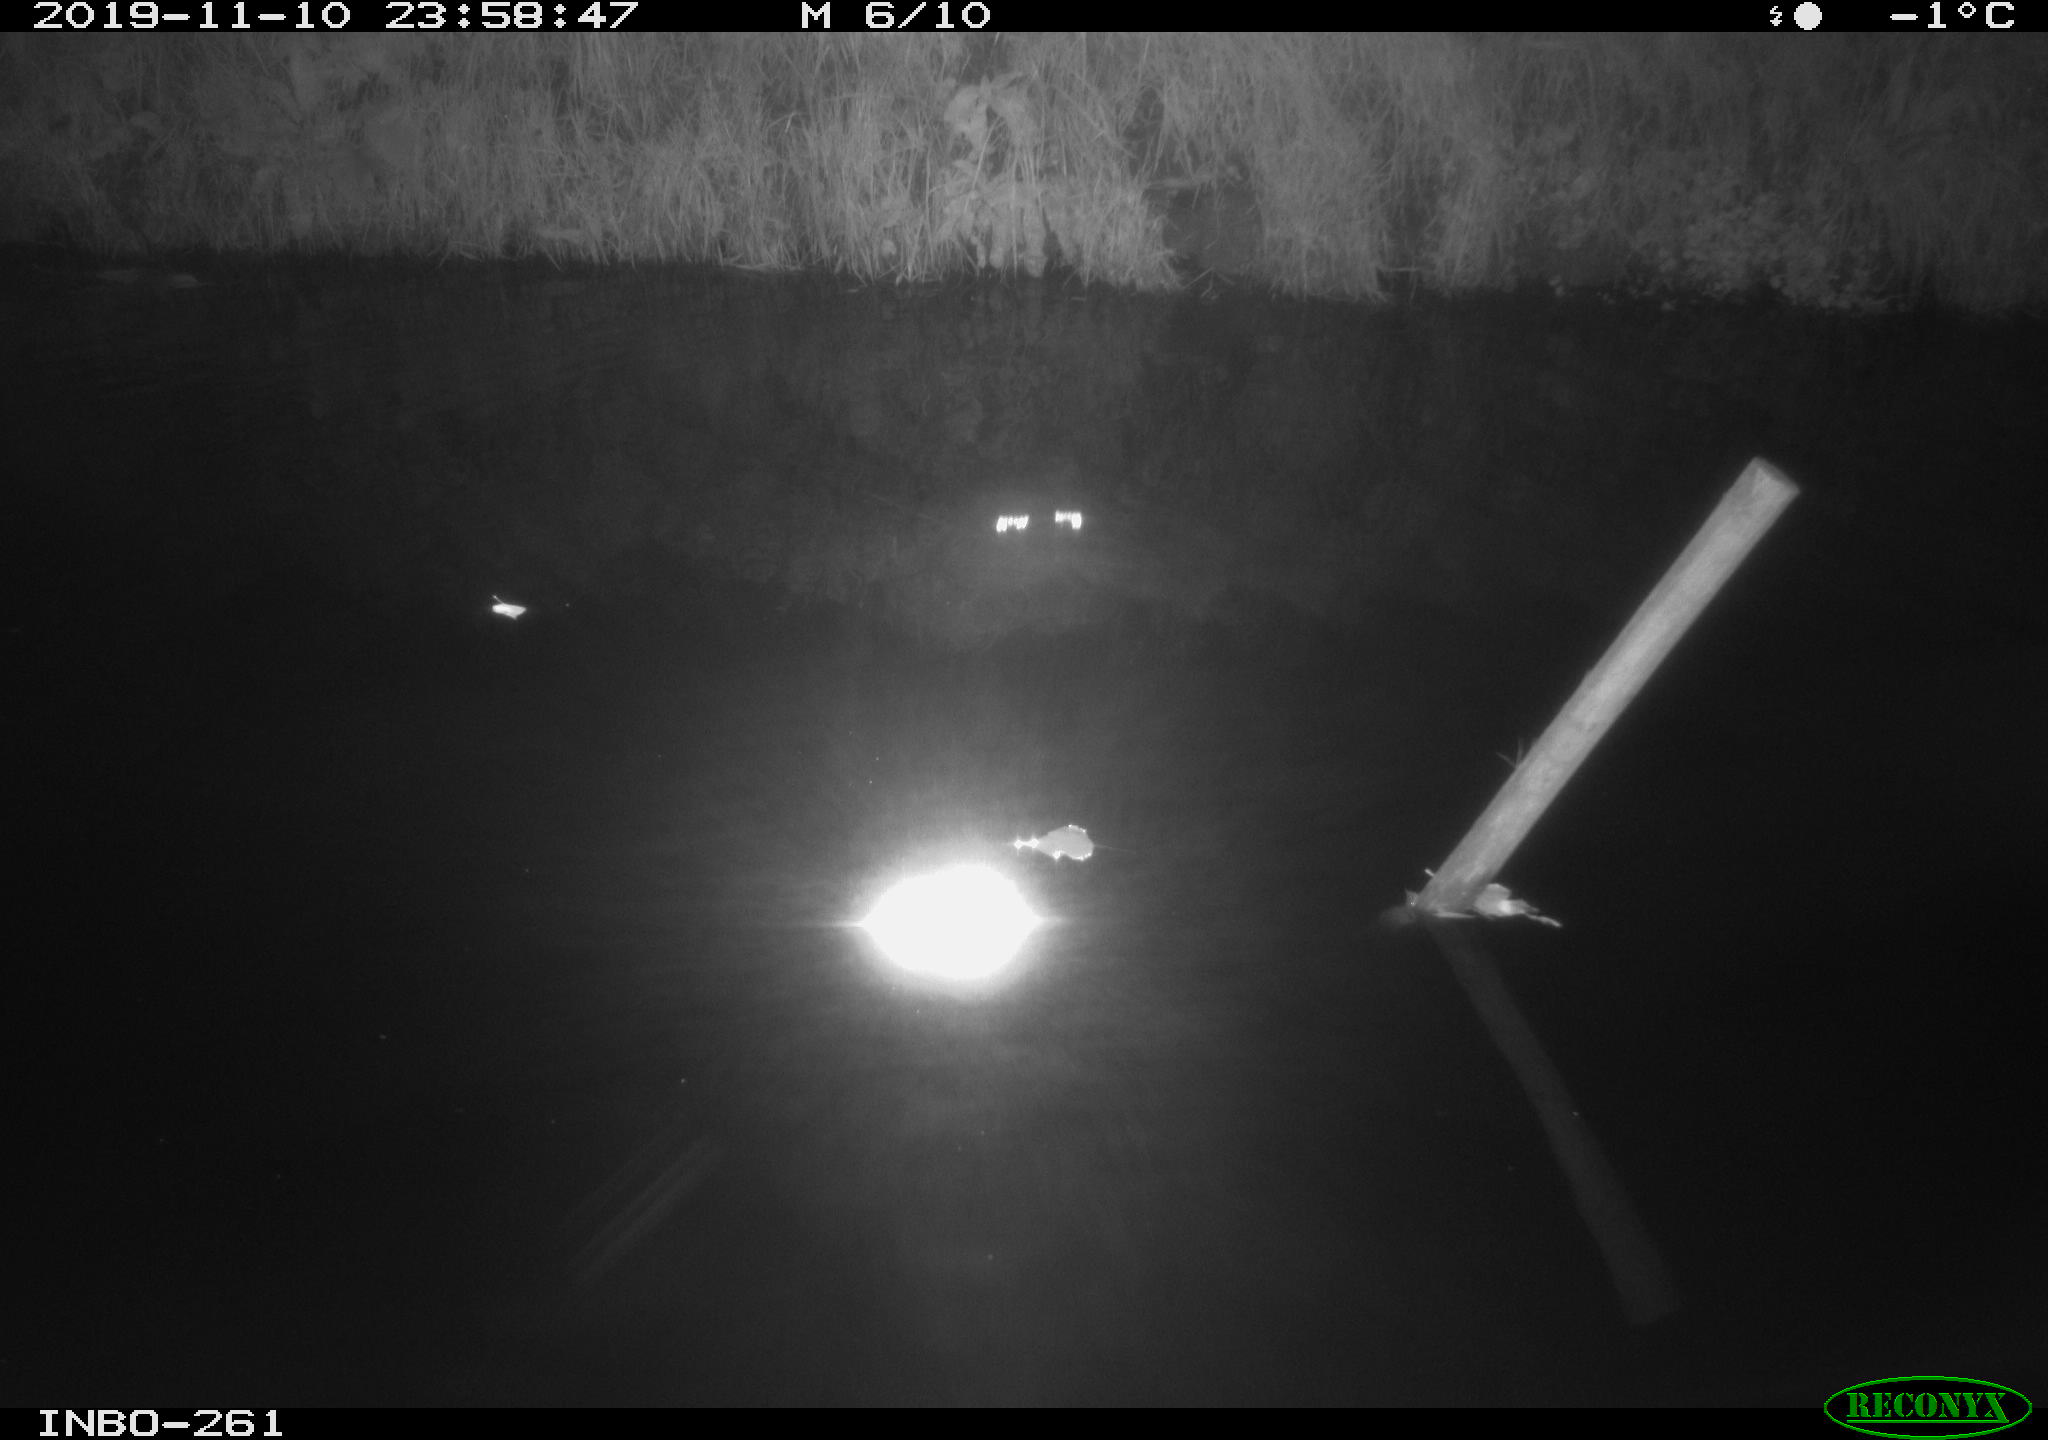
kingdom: Animalia
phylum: Chordata
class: Aves
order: Anseriformes
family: Anatidae
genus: Anas
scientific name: Anas platyrhynchos
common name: Mallard
